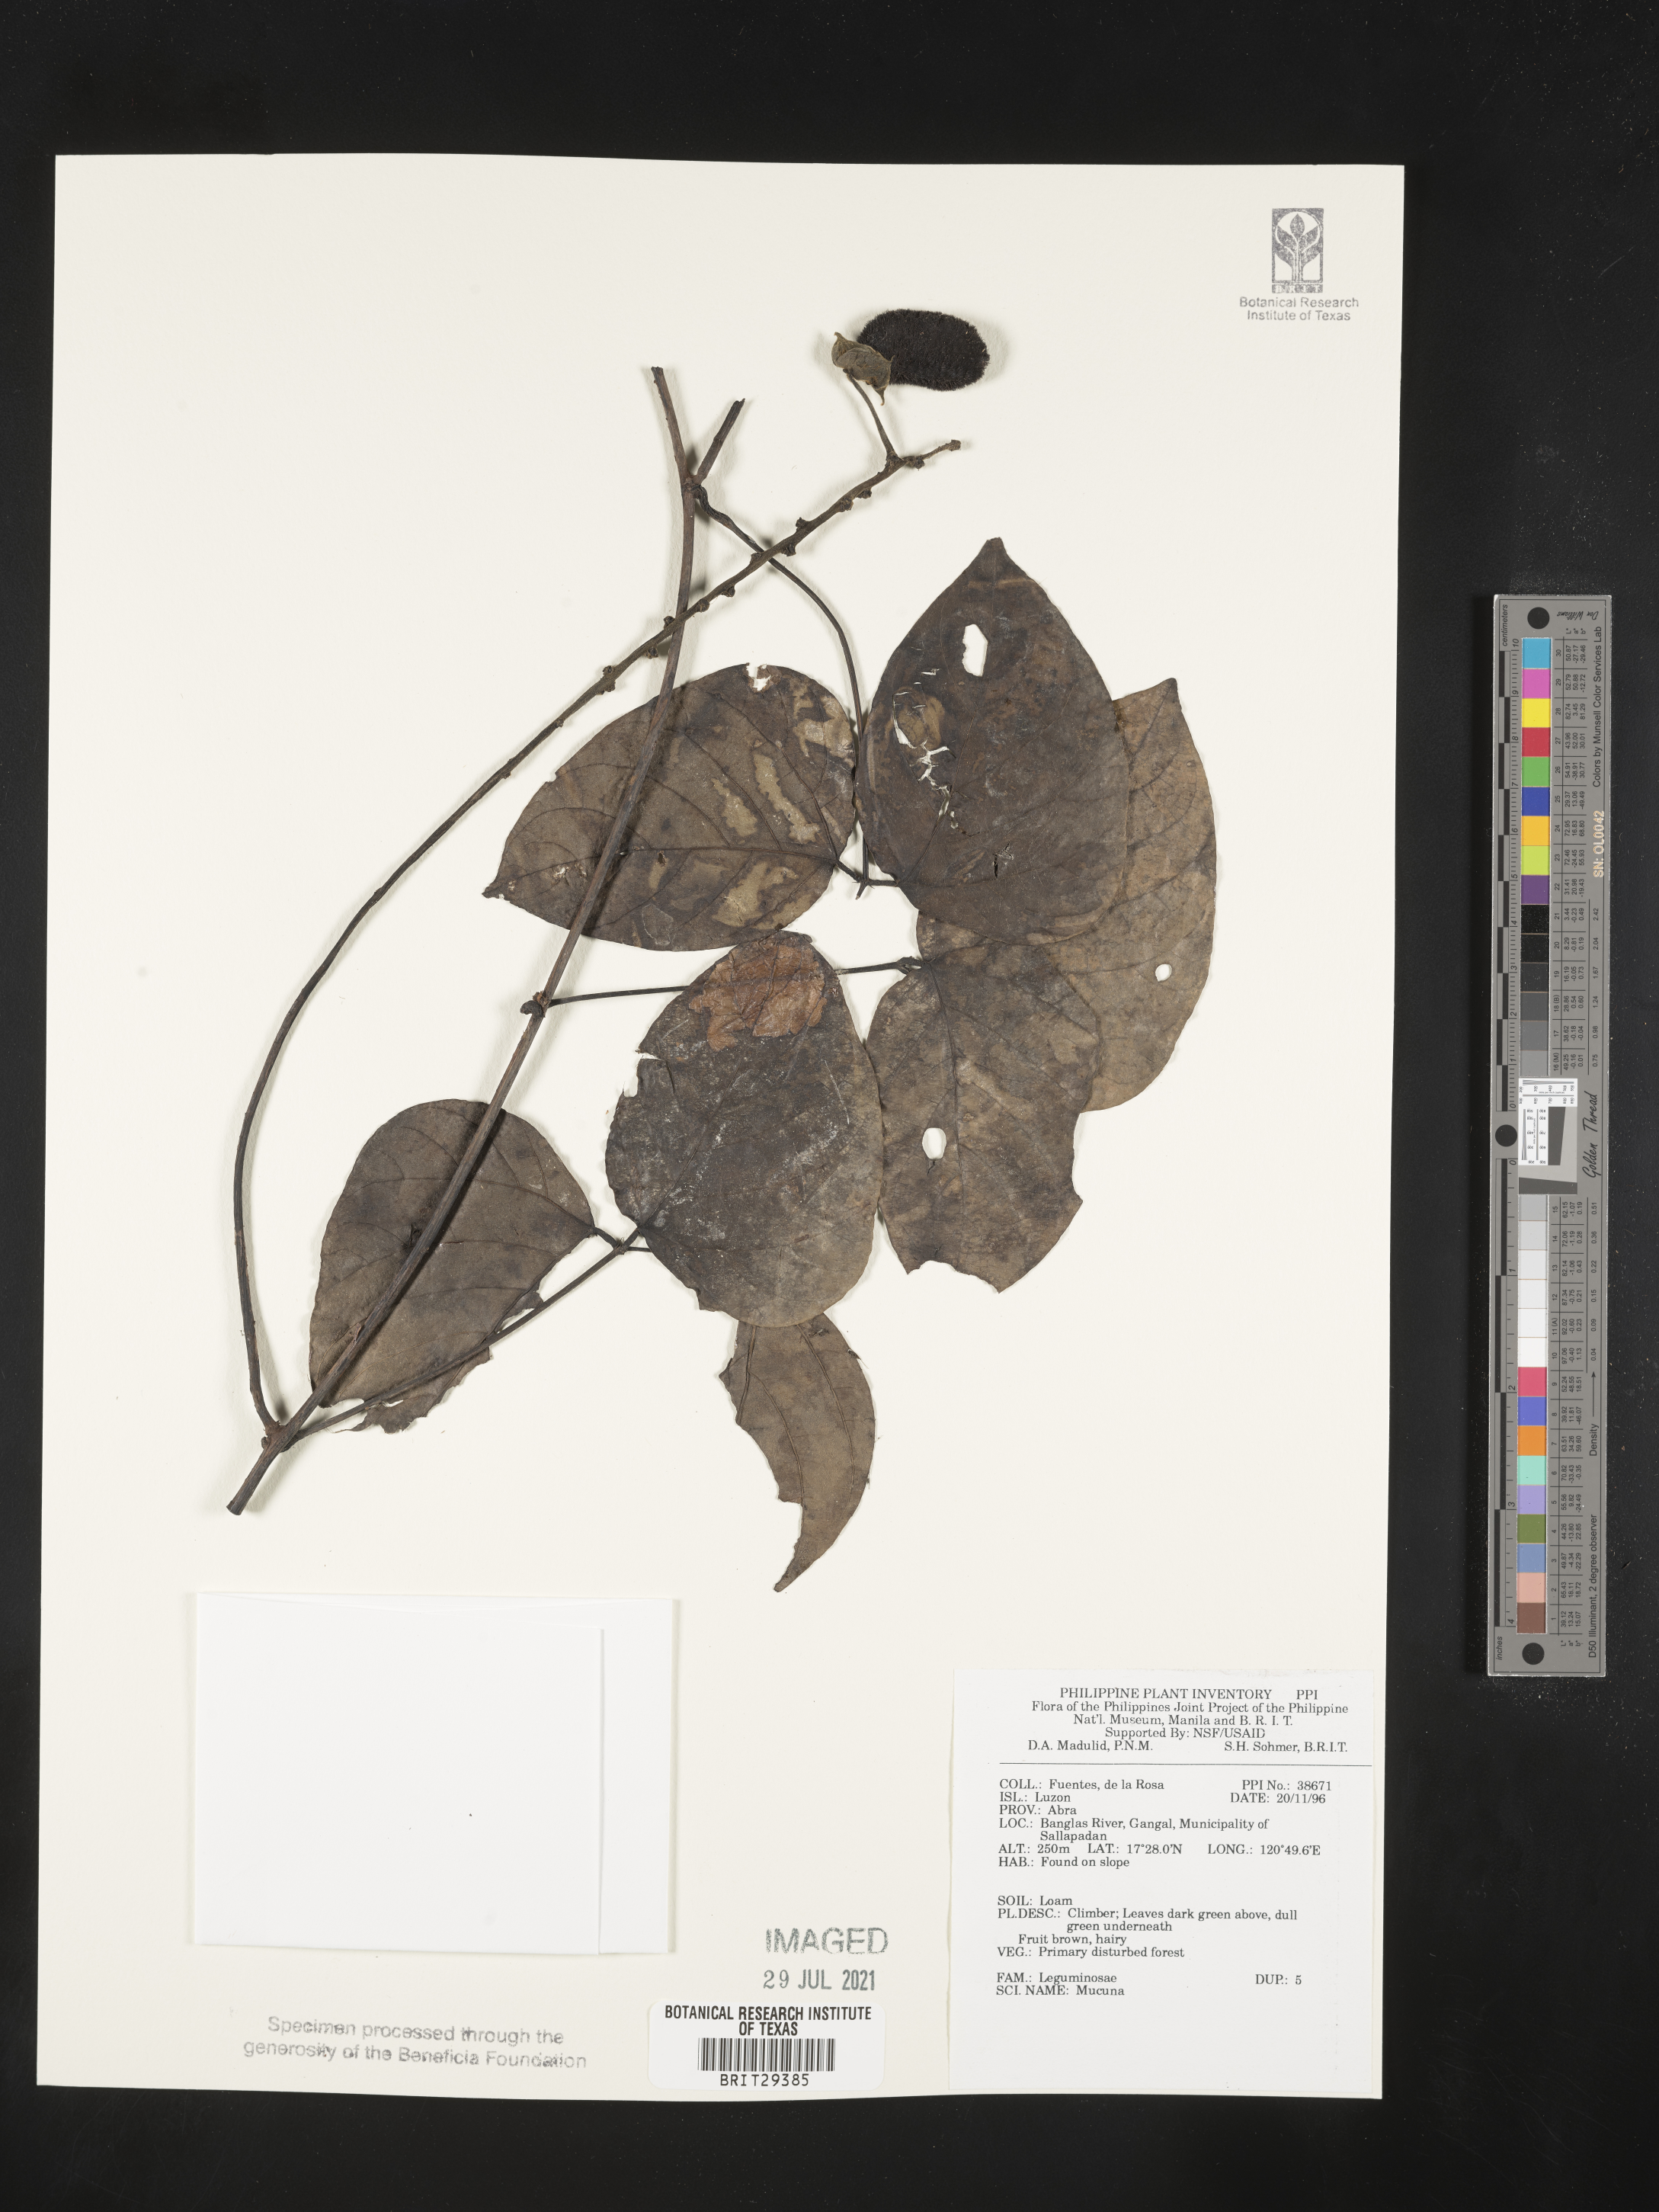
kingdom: Plantae
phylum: Tracheophyta
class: Magnoliopsida
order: Fabales
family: Fabaceae
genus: Mucuna
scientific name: Mucuna
